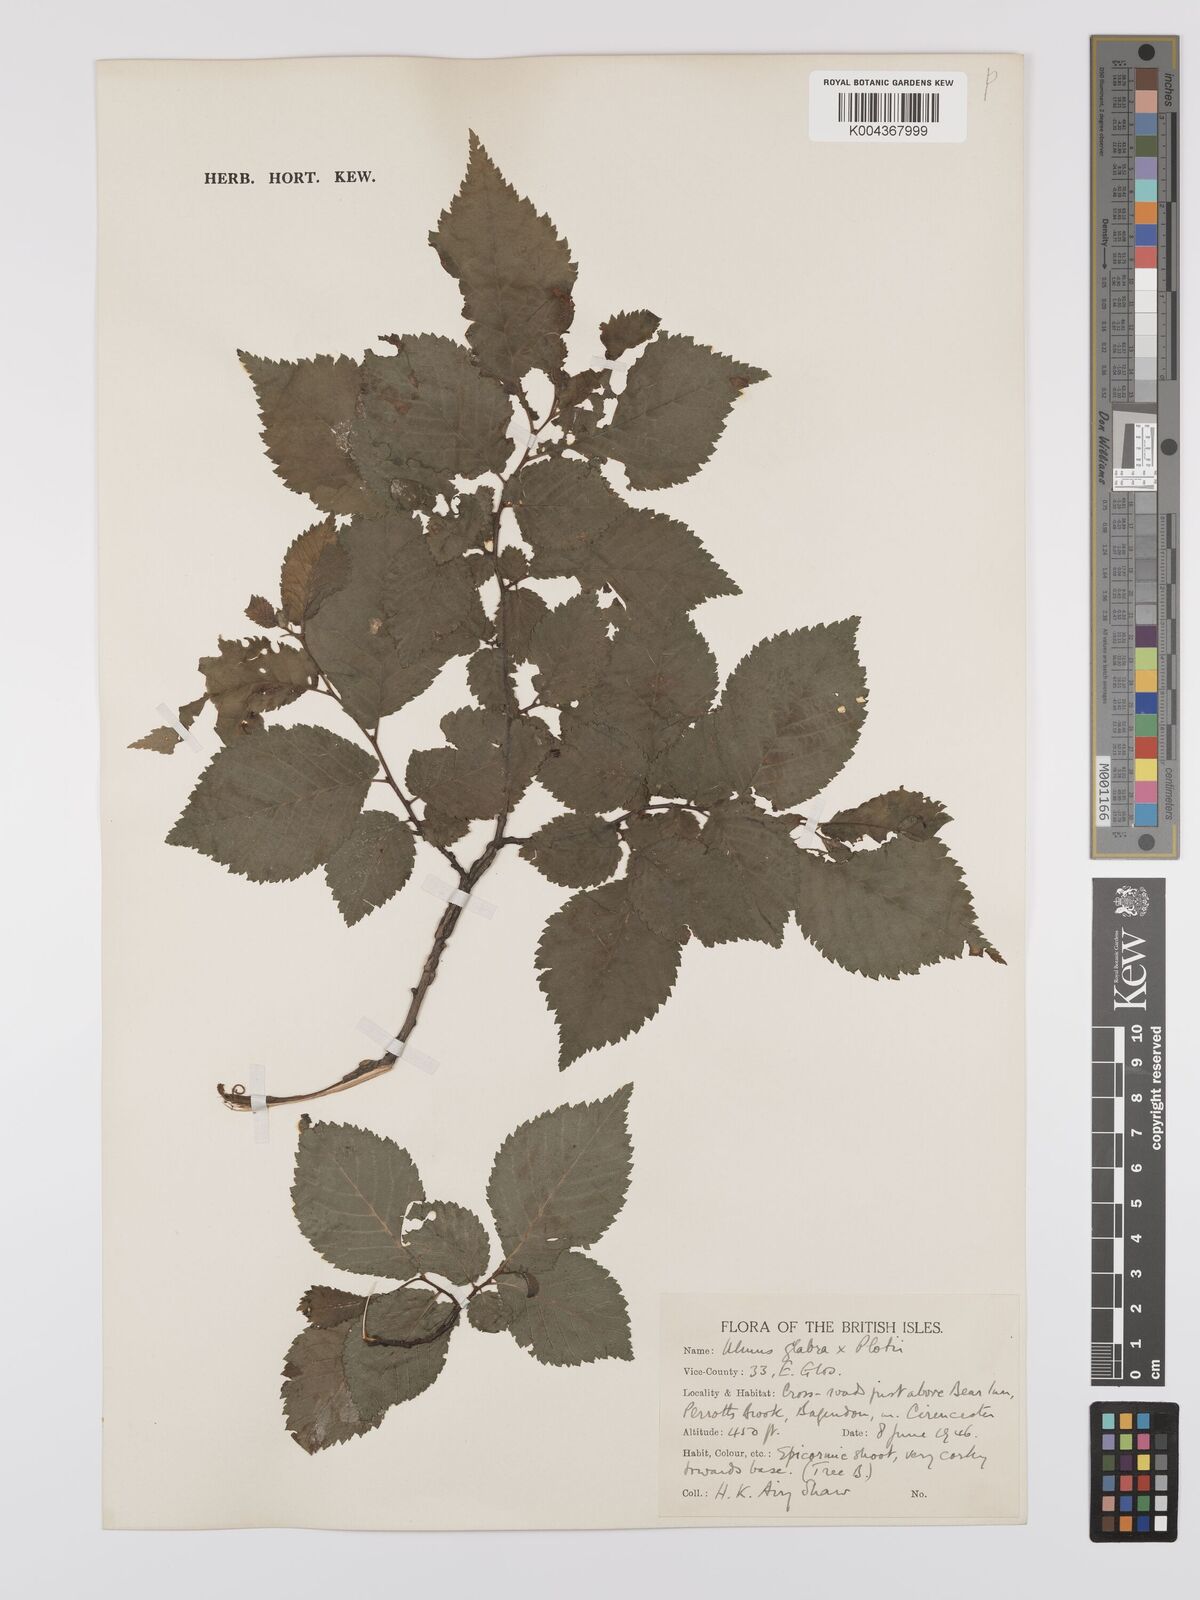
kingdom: Plantae
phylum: Tracheophyta
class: Magnoliopsida
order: Rosales
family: Ulmaceae
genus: Ulmus
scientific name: Ulmus minor
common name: Small-leaved elm
